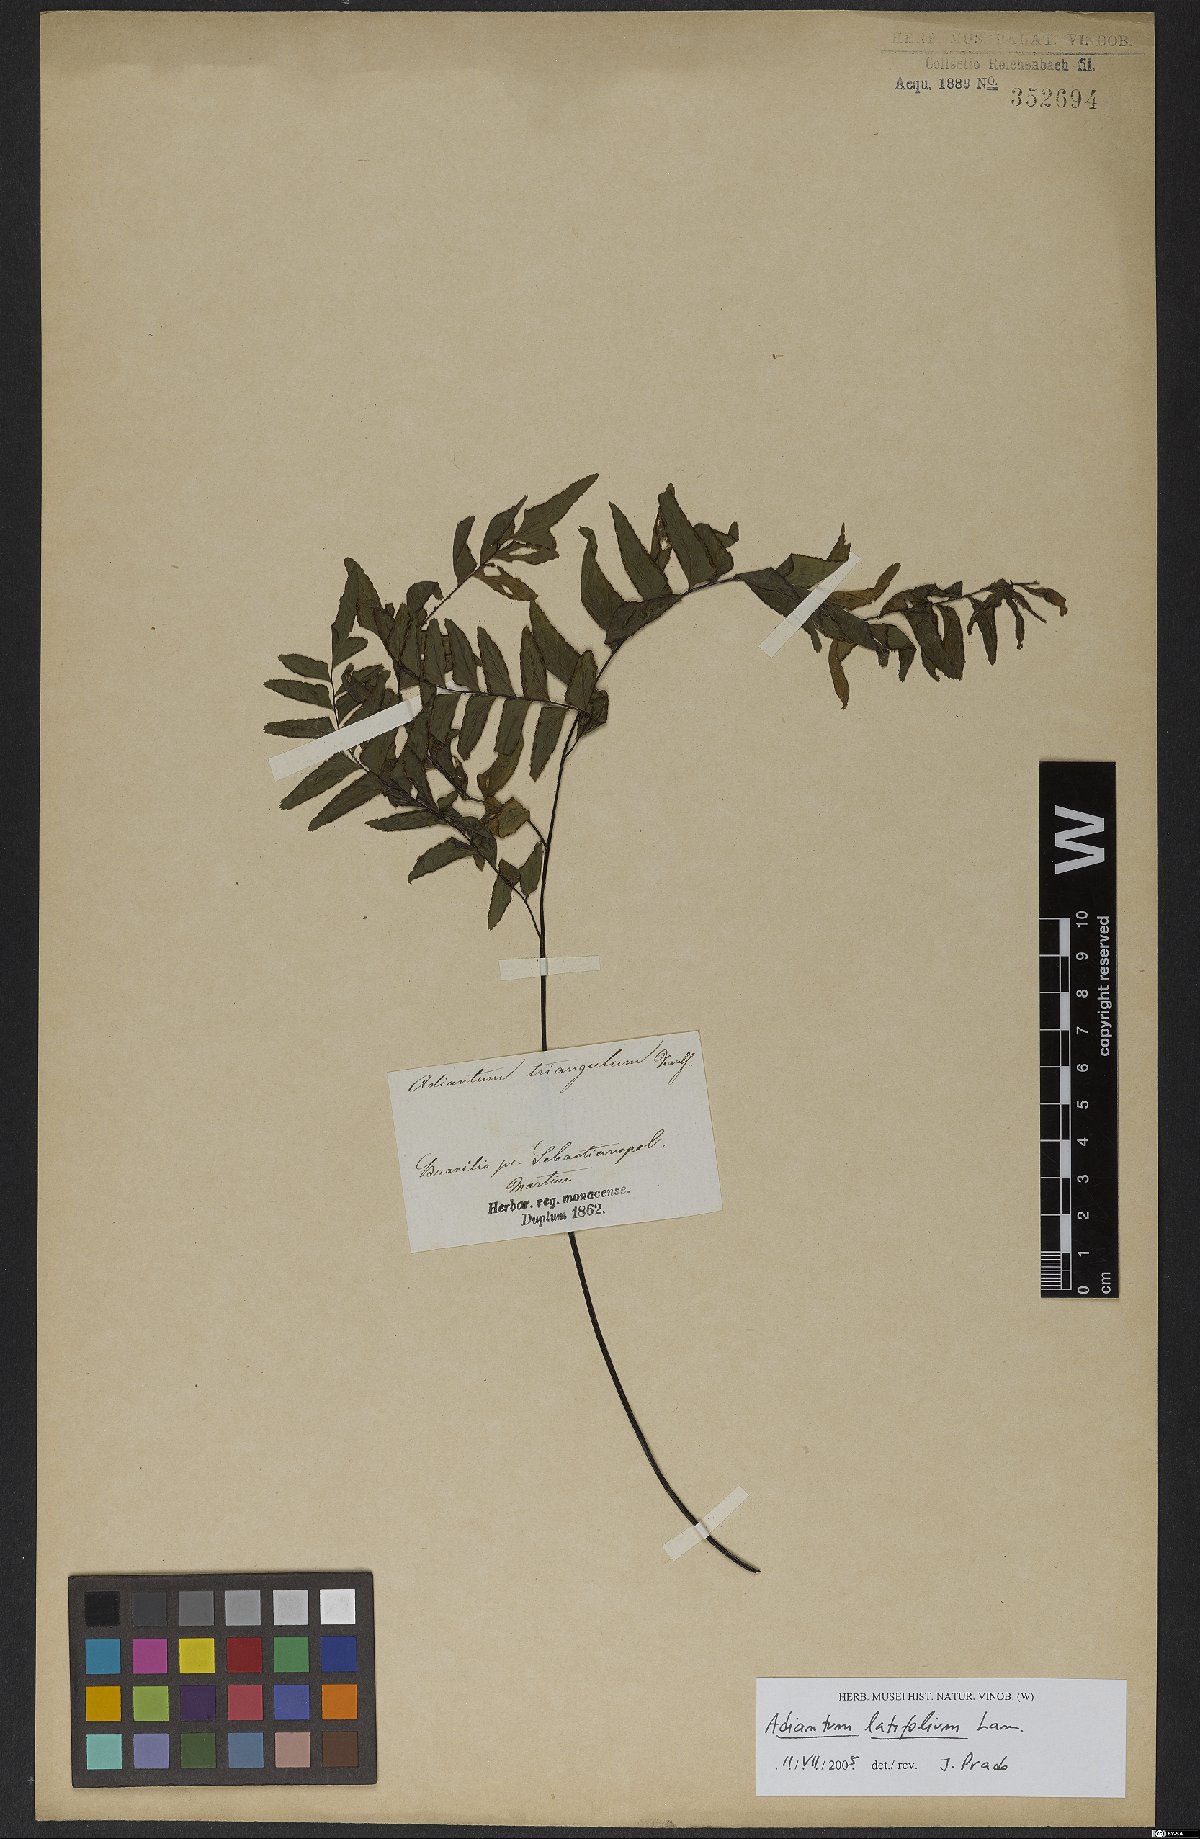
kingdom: Plantae
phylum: Tracheophyta
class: Polypodiopsida
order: Polypodiales
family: Pteridaceae
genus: Adiantum
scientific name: Adiantum latifolium
